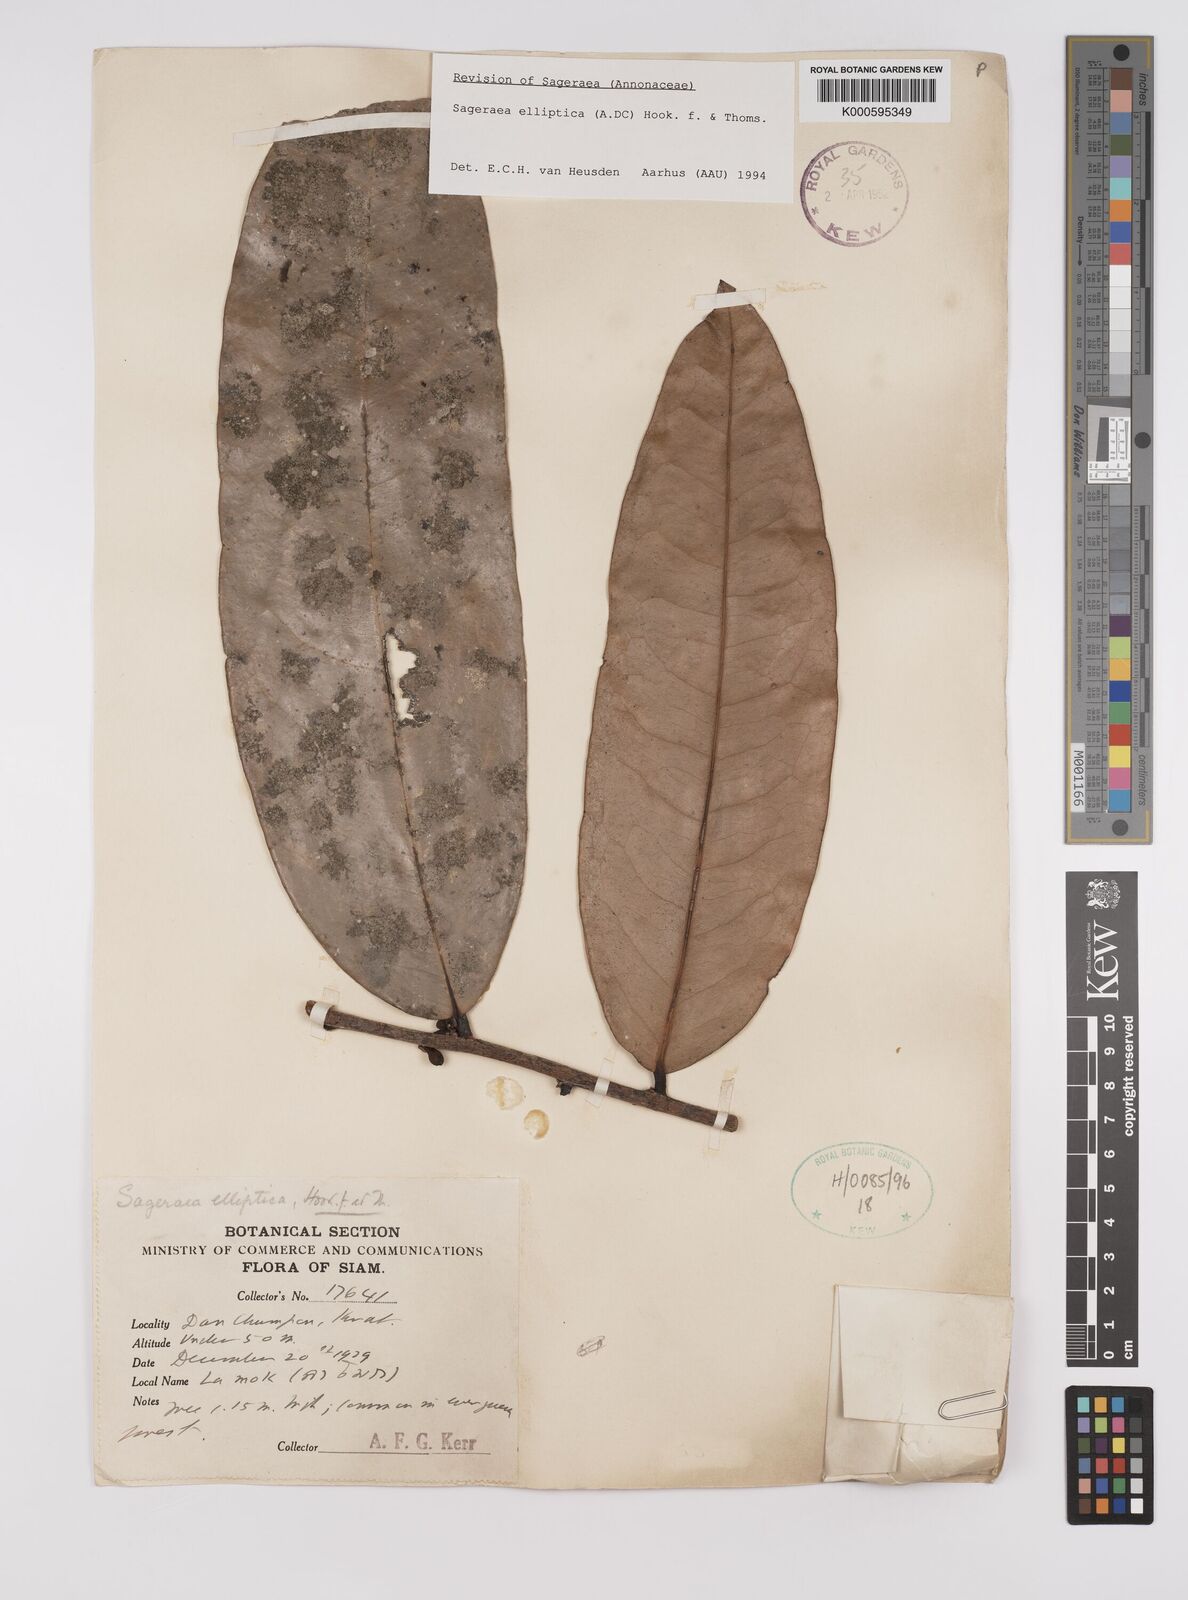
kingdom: Plantae
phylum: Tracheophyta
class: Magnoliopsida
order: Magnoliales
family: Annonaceae
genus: Sageraea
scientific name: Sageraea elliptica
